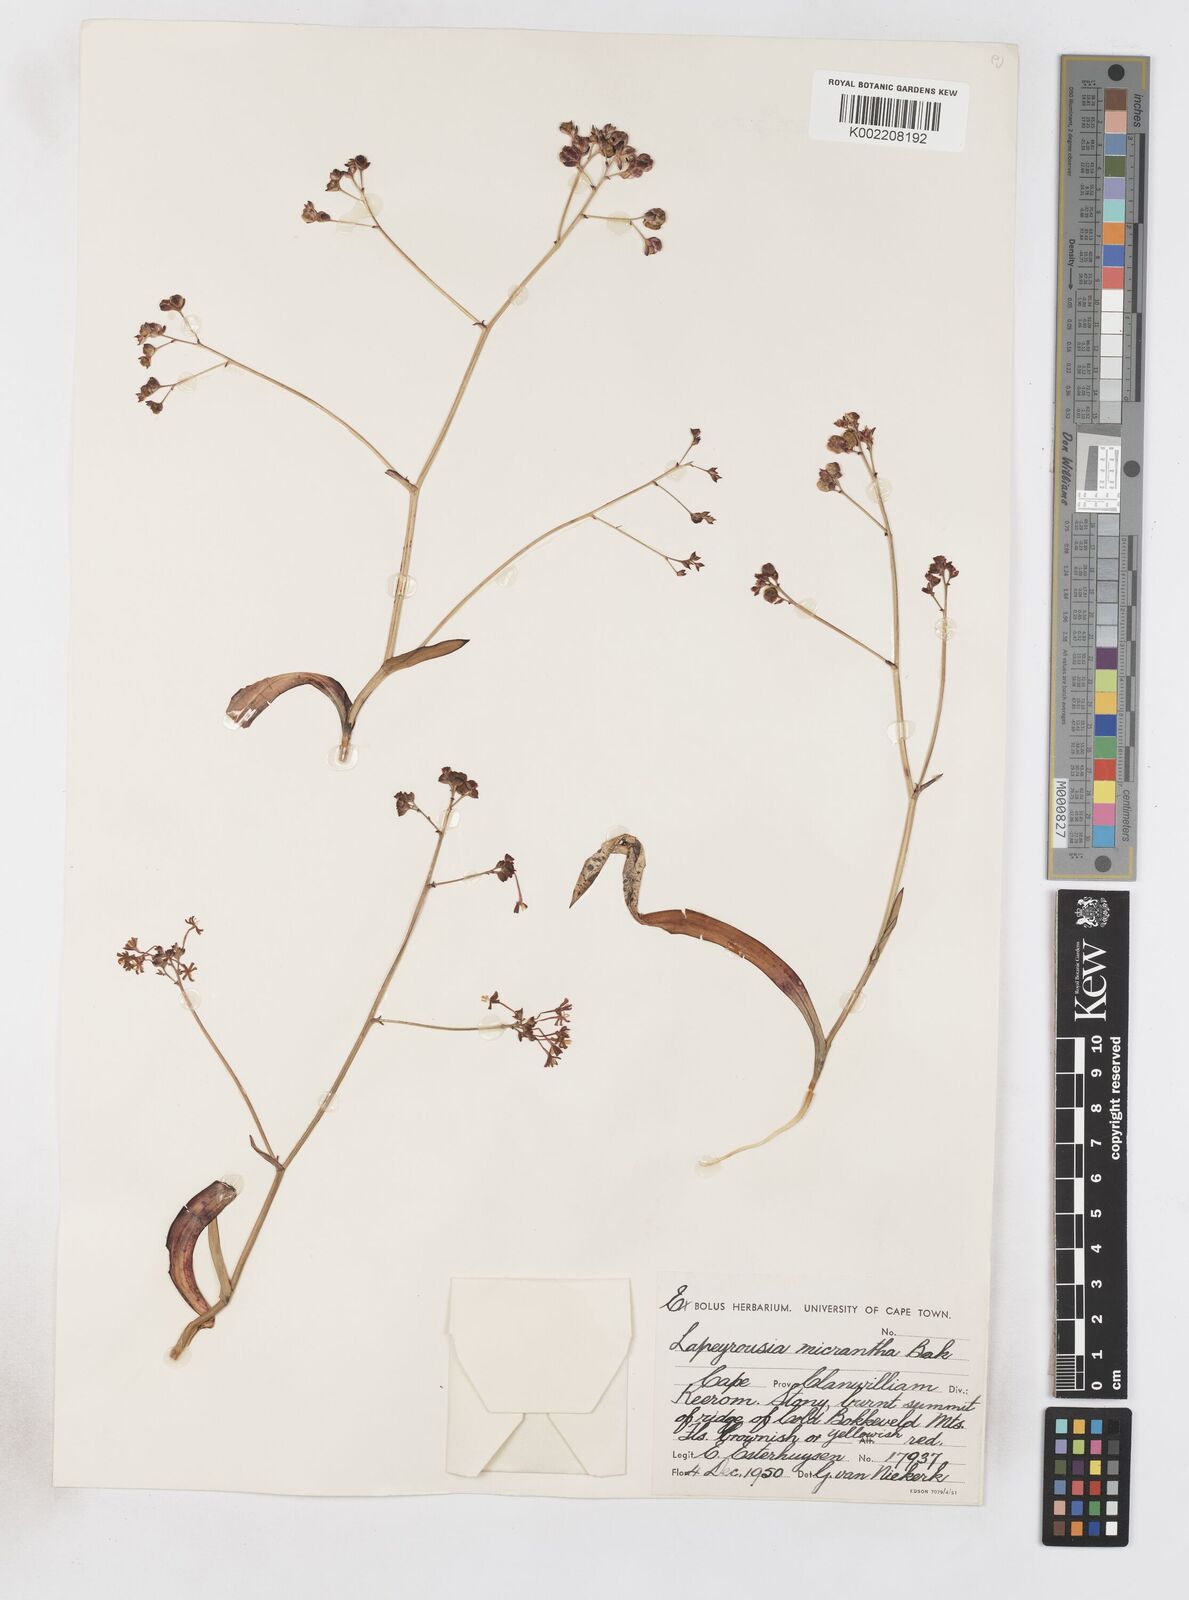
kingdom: Plantae
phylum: Tracheophyta
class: Liliopsida
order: Asparagales
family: Iridaceae
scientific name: Iridaceae
